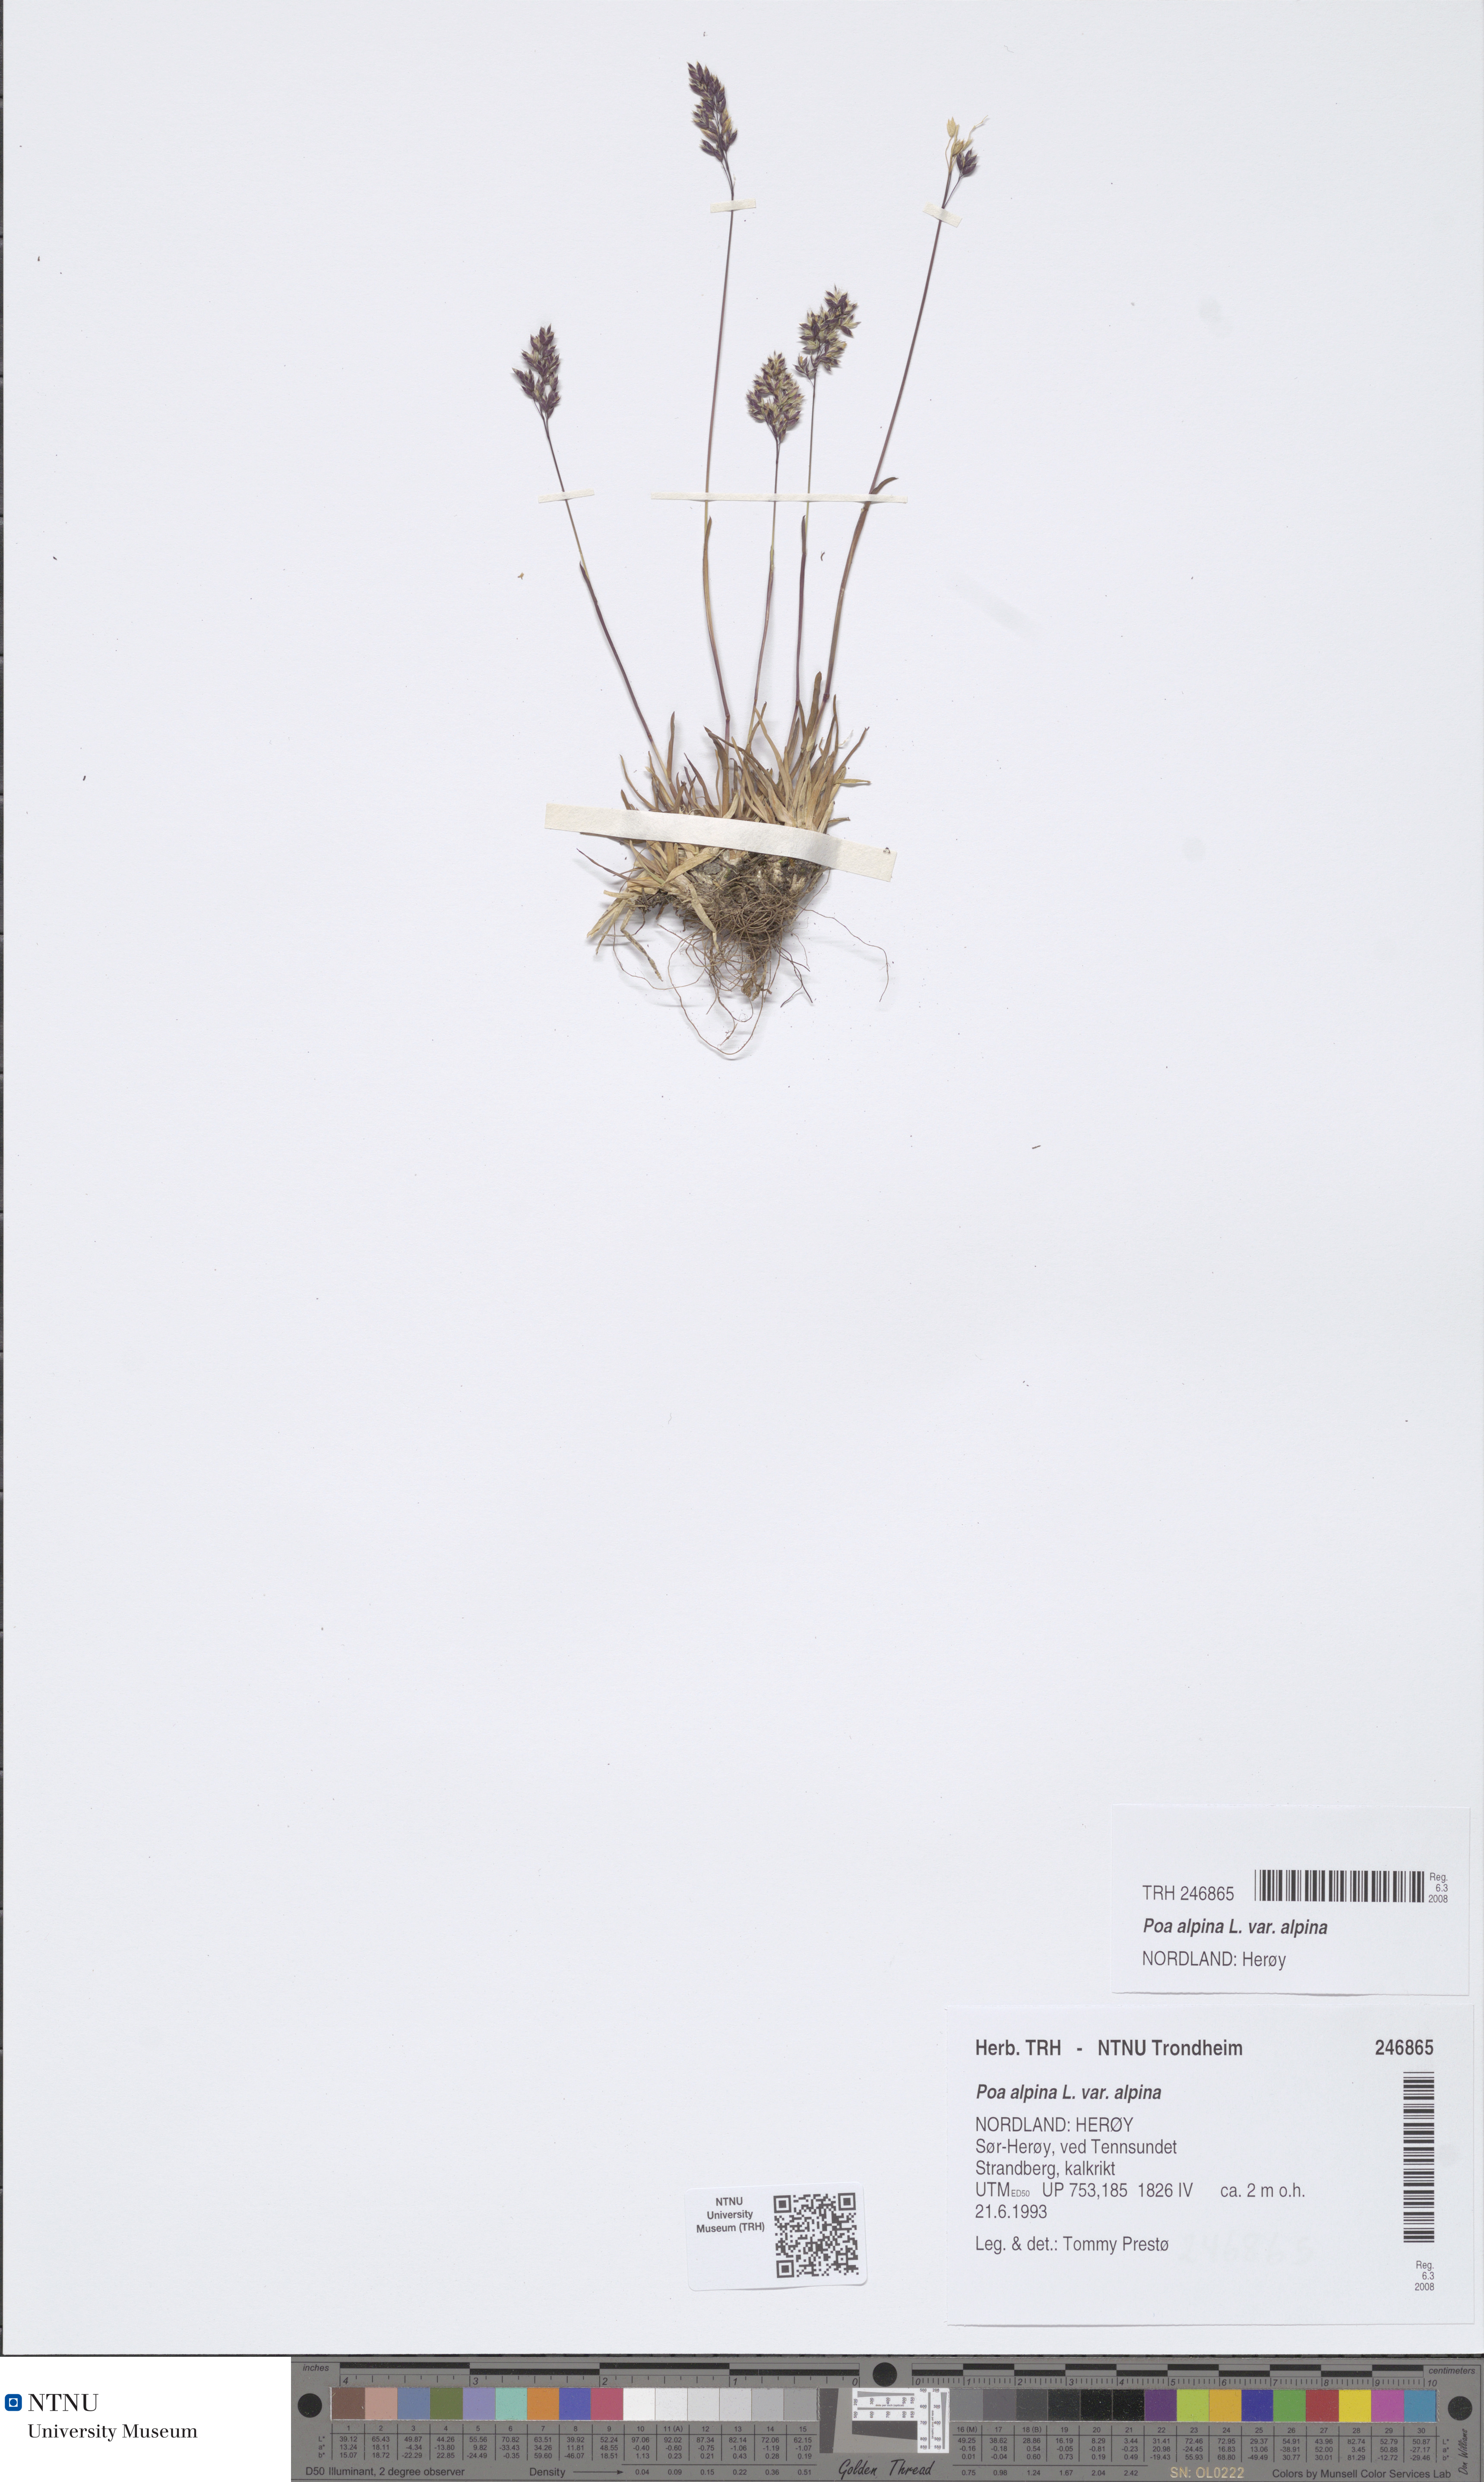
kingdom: Plantae
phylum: Tracheophyta
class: Liliopsida
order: Poales
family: Poaceae
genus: Poa
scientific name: Poa alpina
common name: Alpine bluegrass
